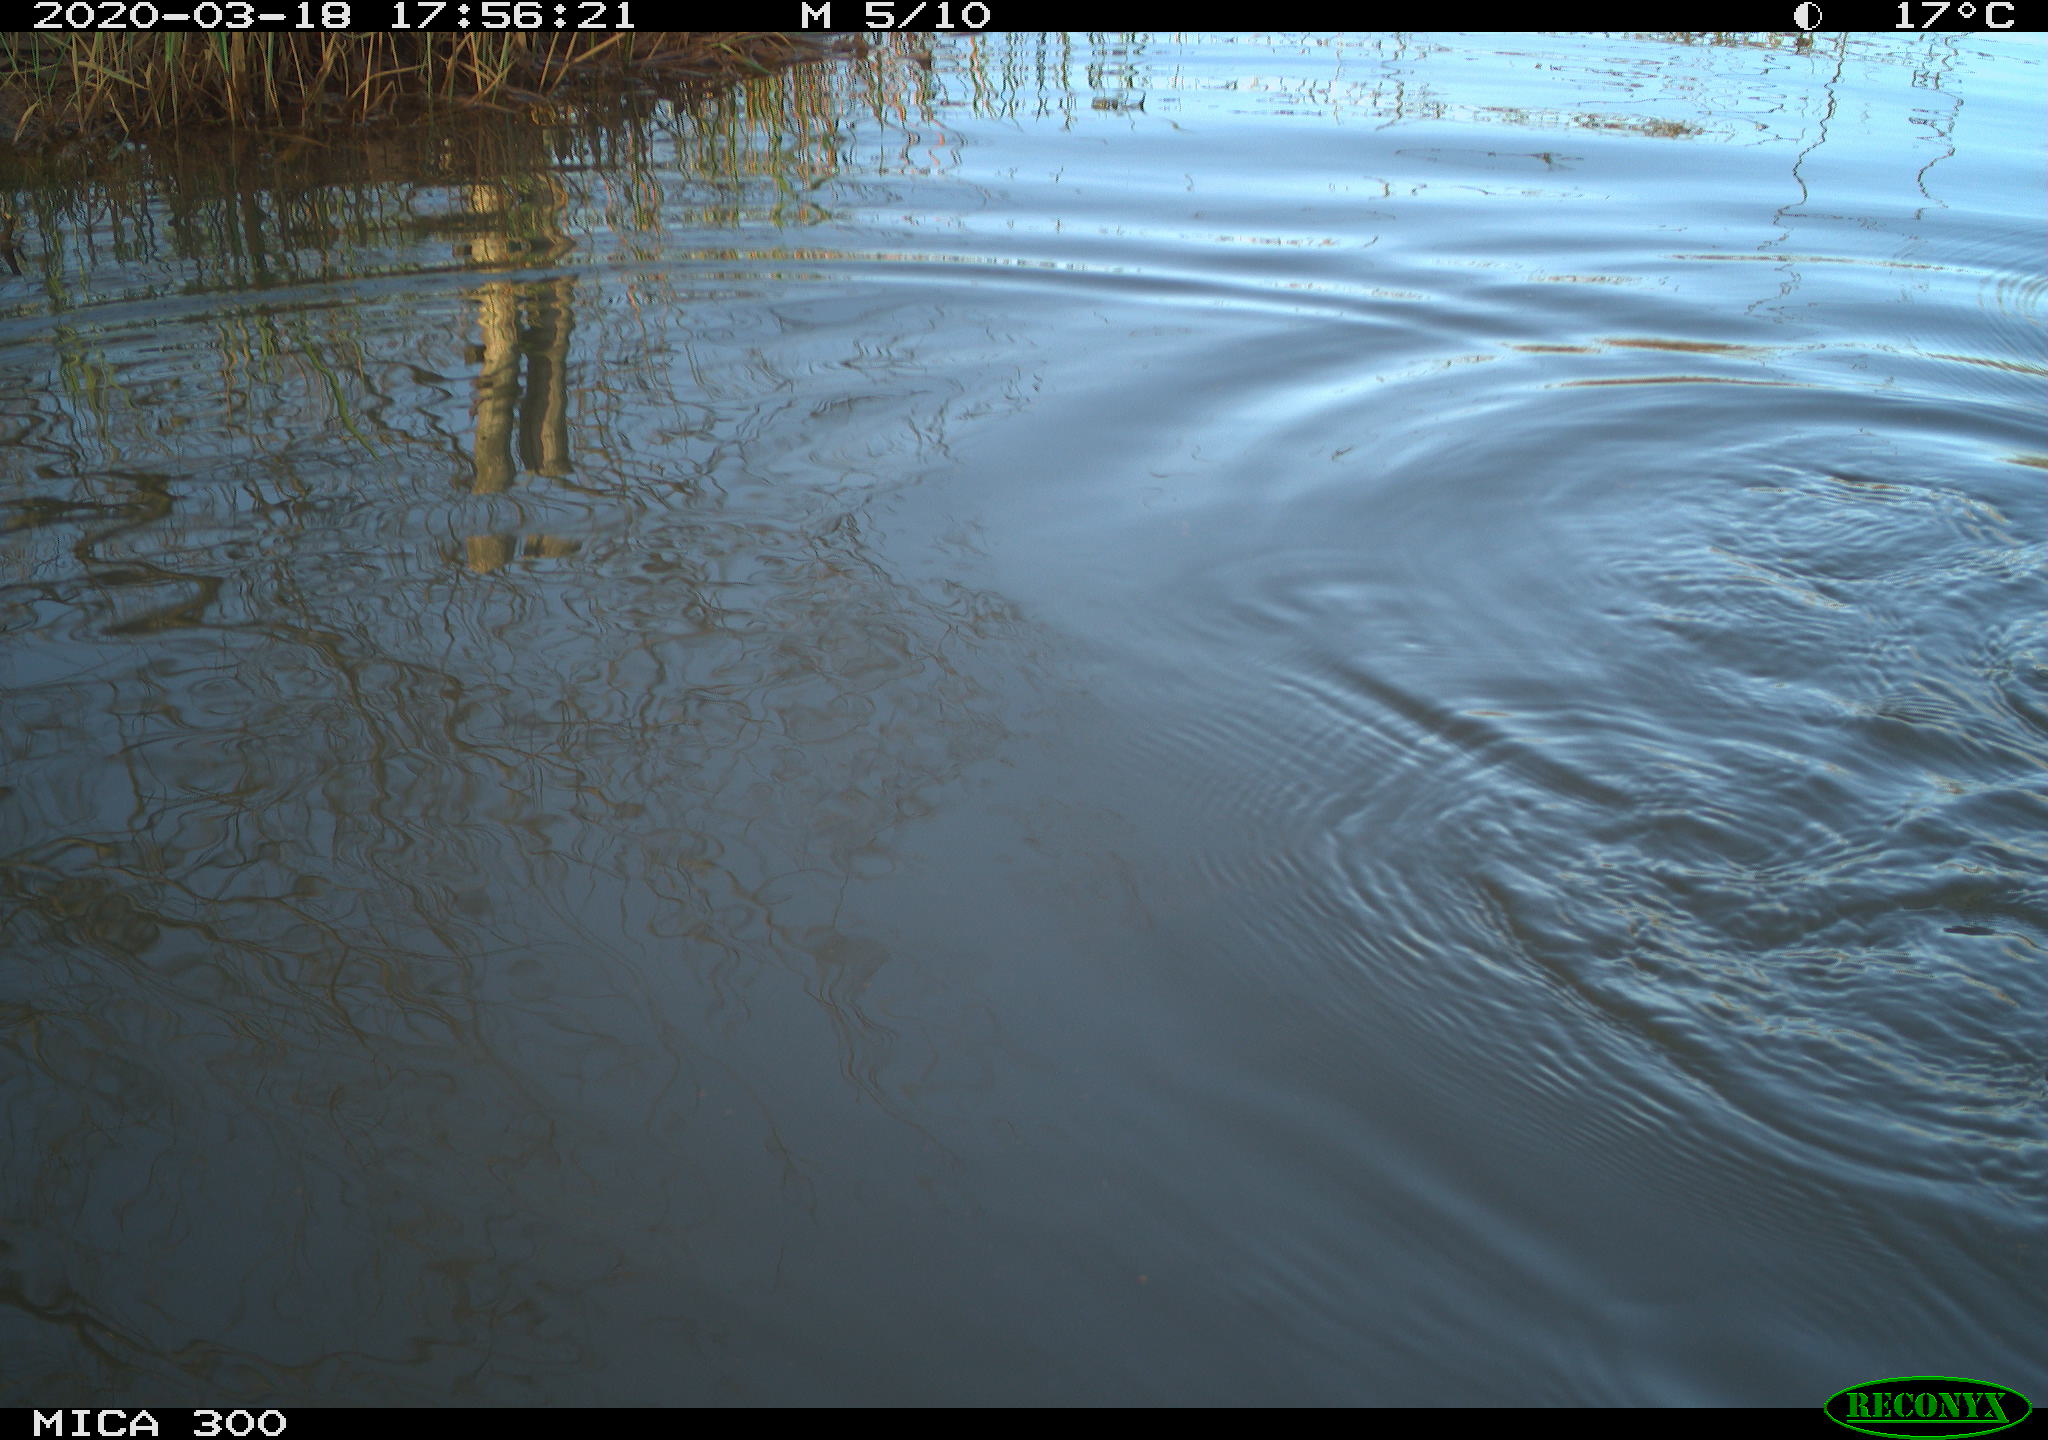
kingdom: Animalia
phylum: Chordata
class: Mammalia
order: Rodentia
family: Myocastoridae
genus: Myocastor
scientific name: Myocastor coypus
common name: Coypu
